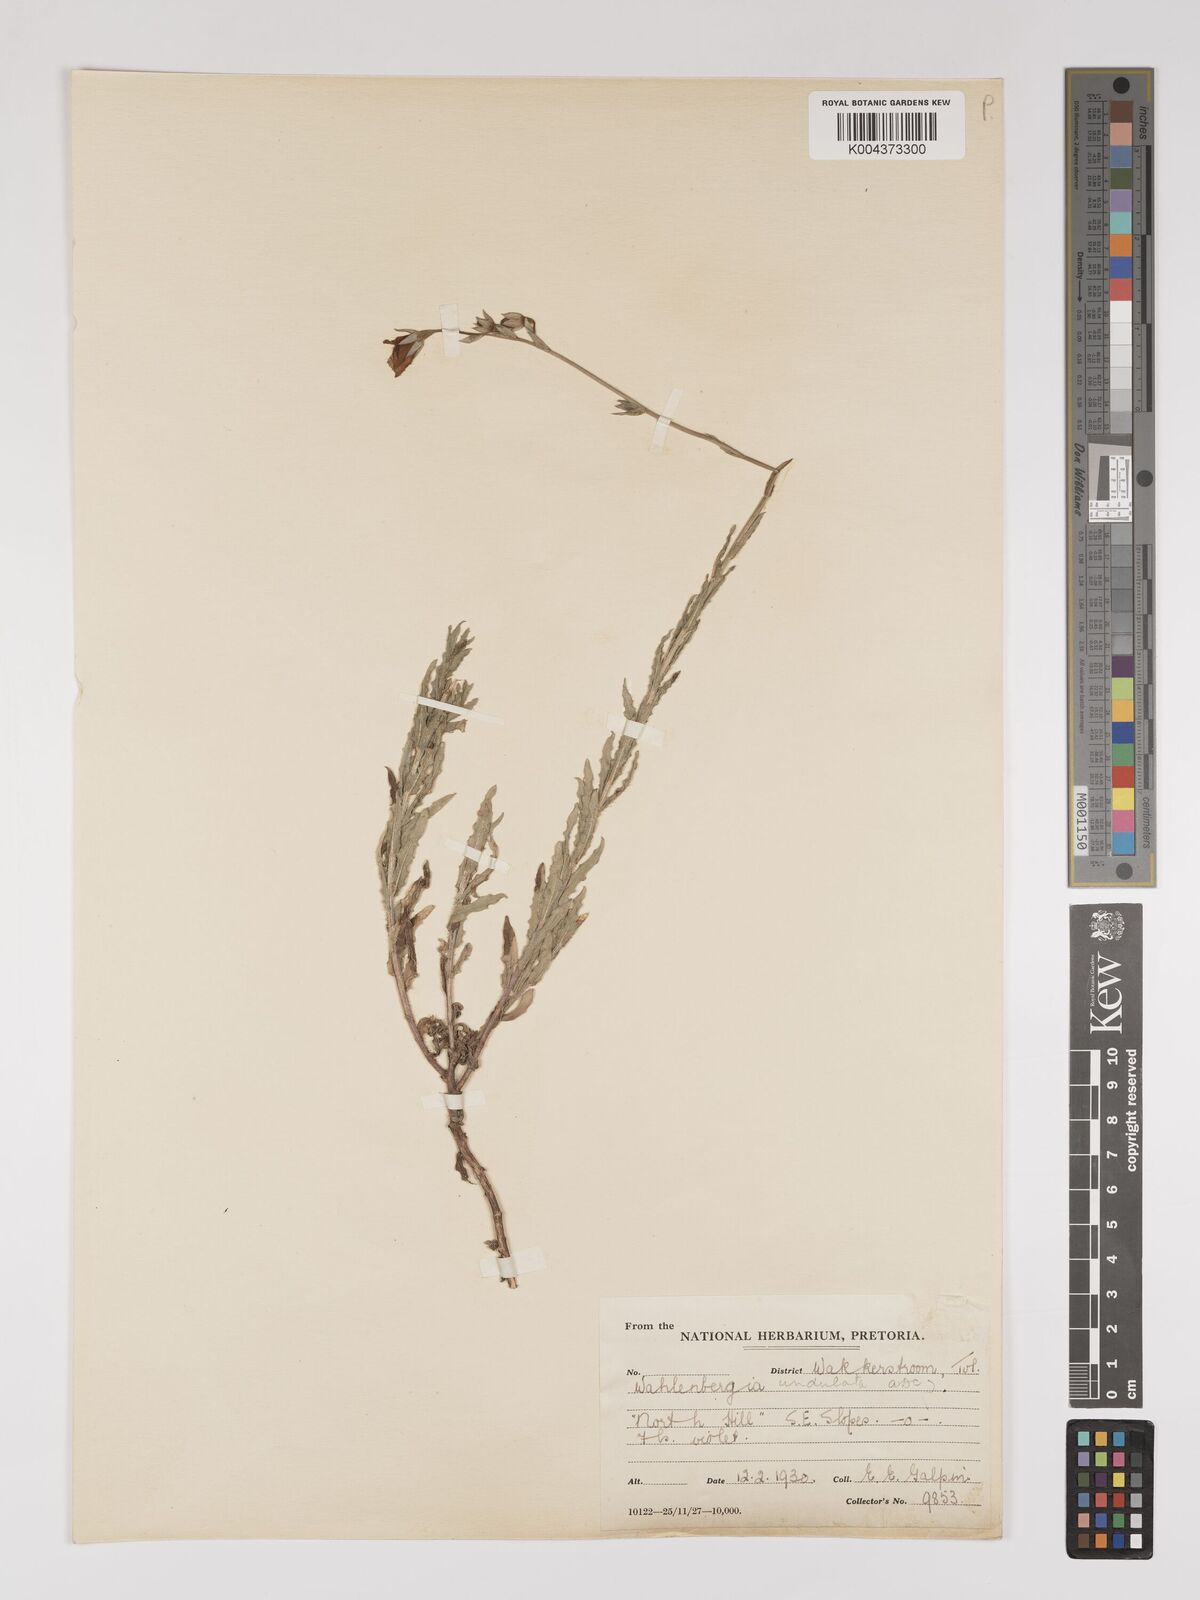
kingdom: Plantae
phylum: Tracheophyta
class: Magnoliopsida
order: Asterales
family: Campanulaceae
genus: Wahlenbergia
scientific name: Wahlenbergia undulata
